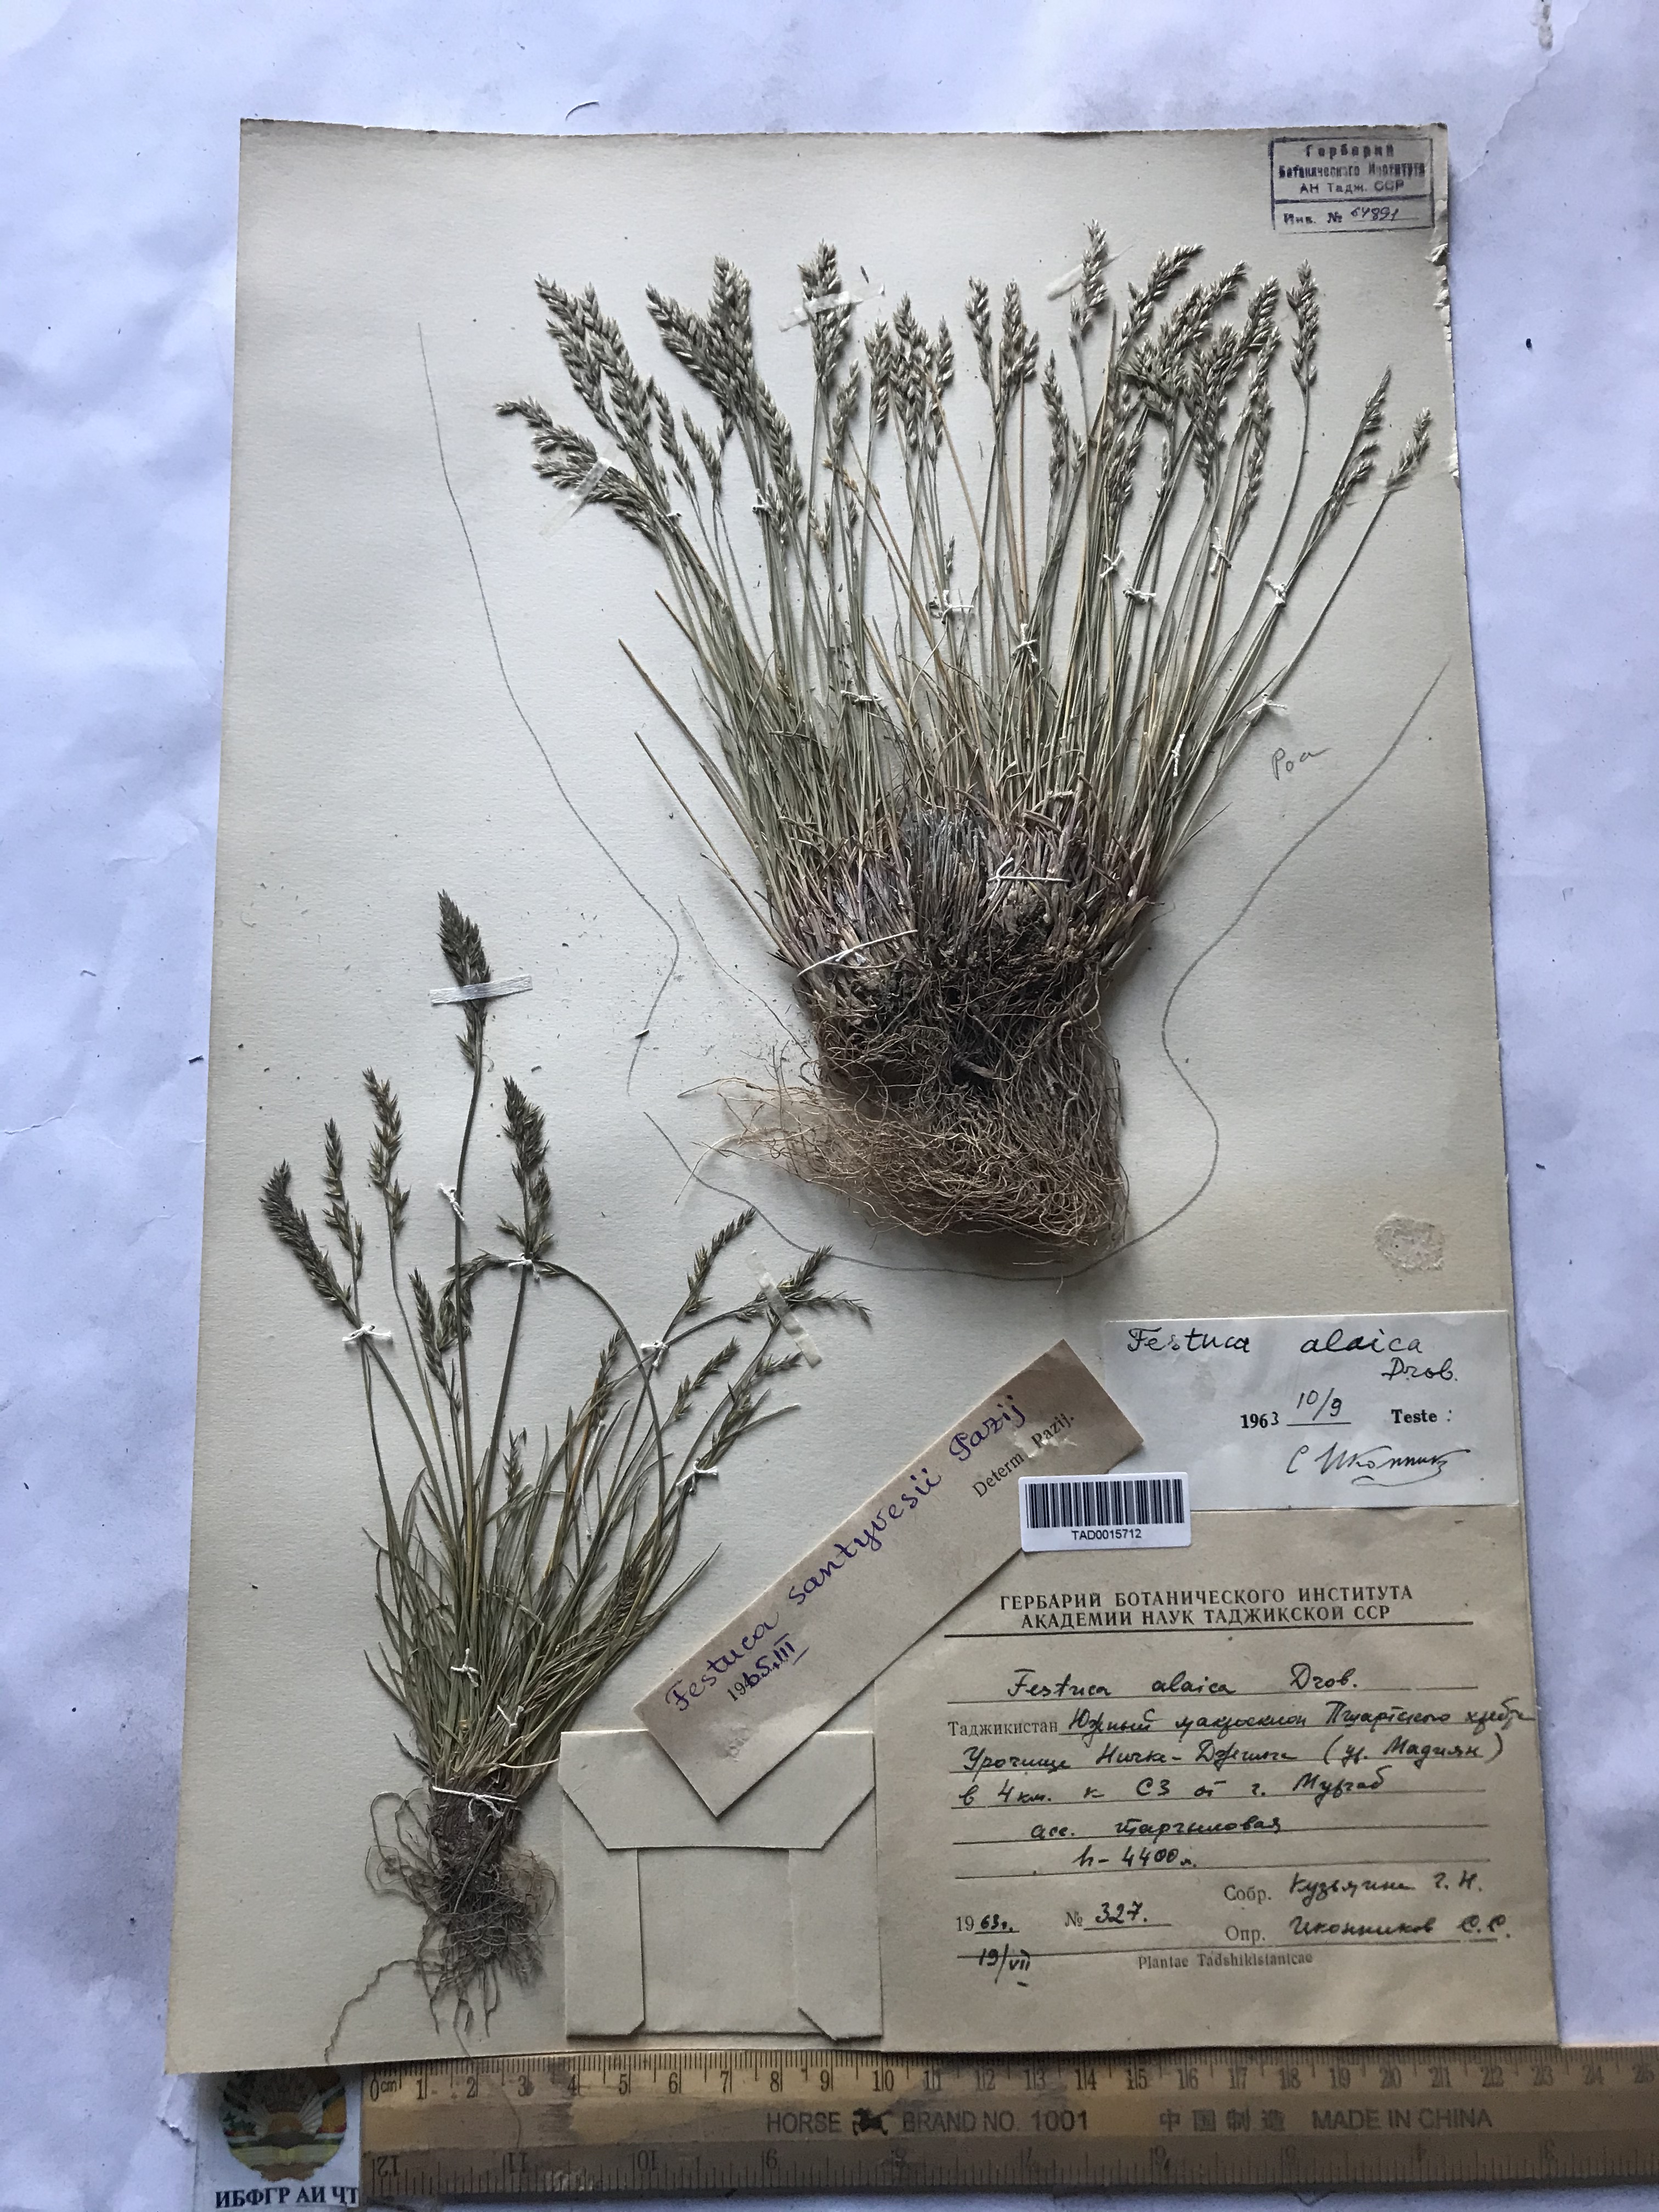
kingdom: Plantae
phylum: Tracheophyta
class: Liliopsida
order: Poales
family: Poaceae
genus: Festuca
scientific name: Festuca coelestis
